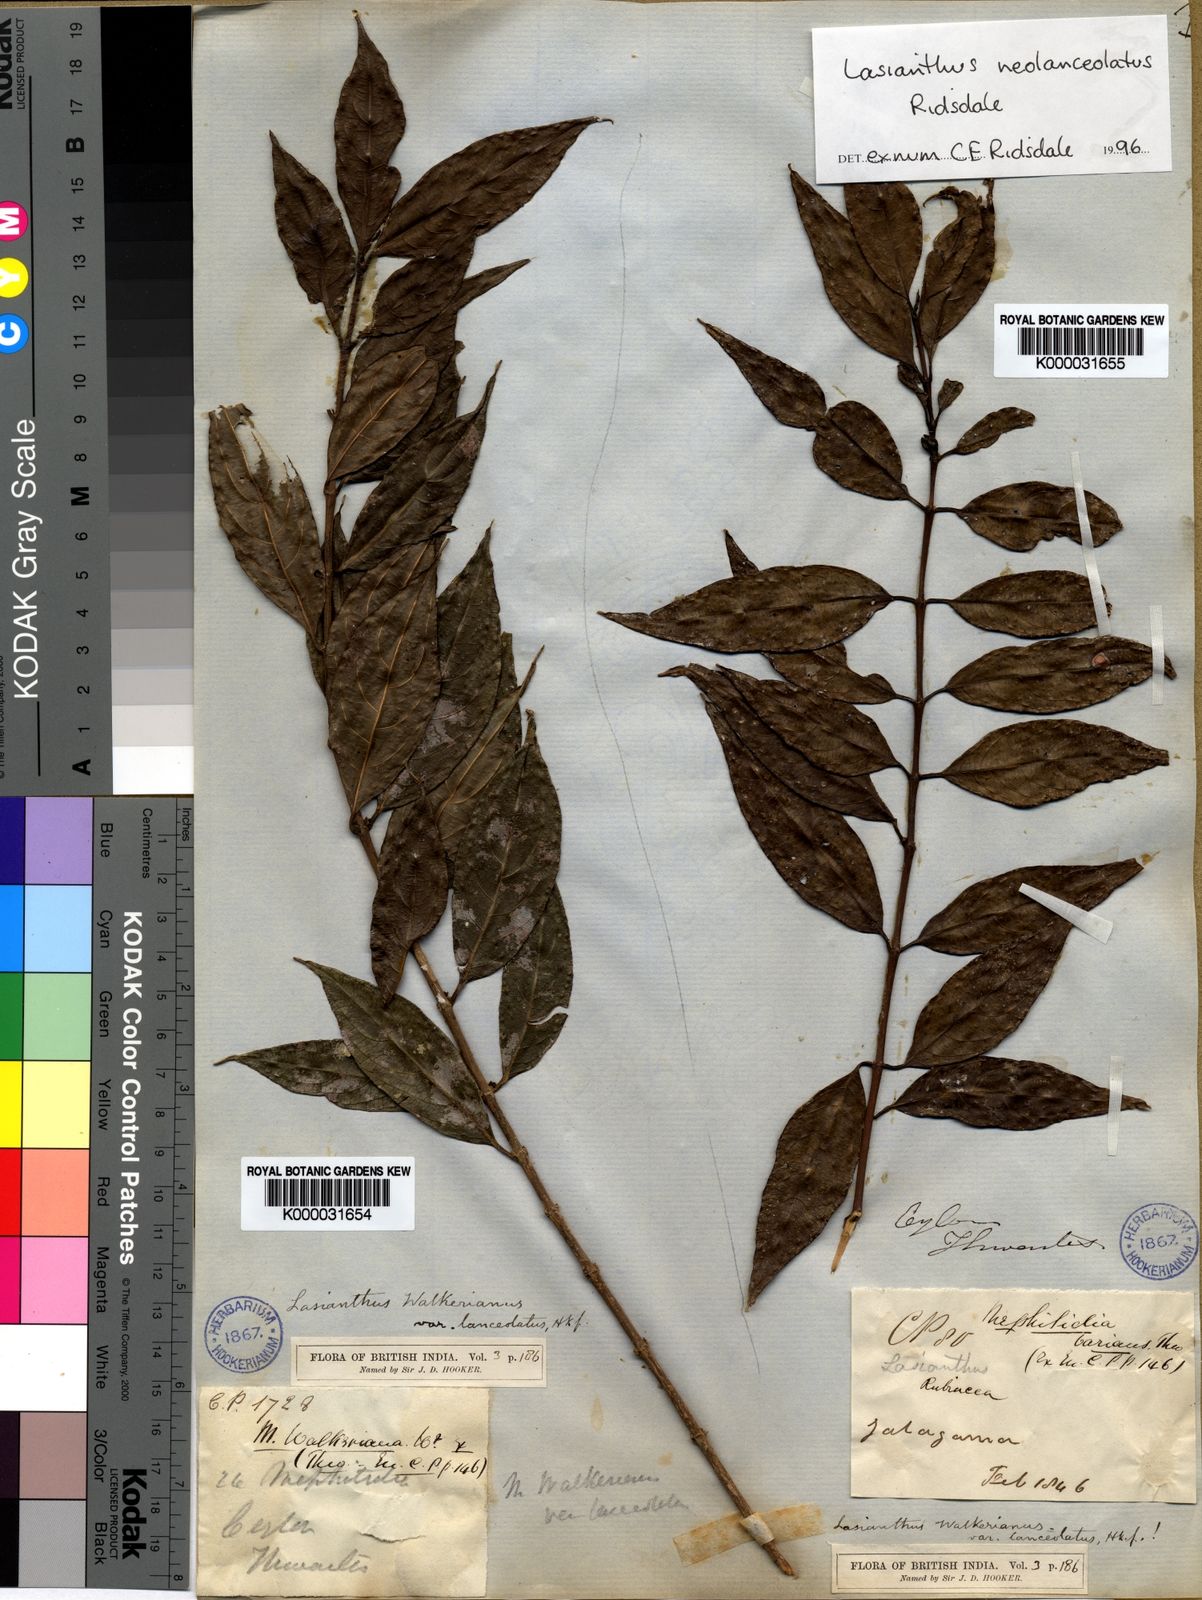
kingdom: Plantae
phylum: Tracheophyta
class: Magnoliopsida
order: Gentianales
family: Rubiaceae
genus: Lasianthus
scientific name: Lasianthus neolanceolatus
